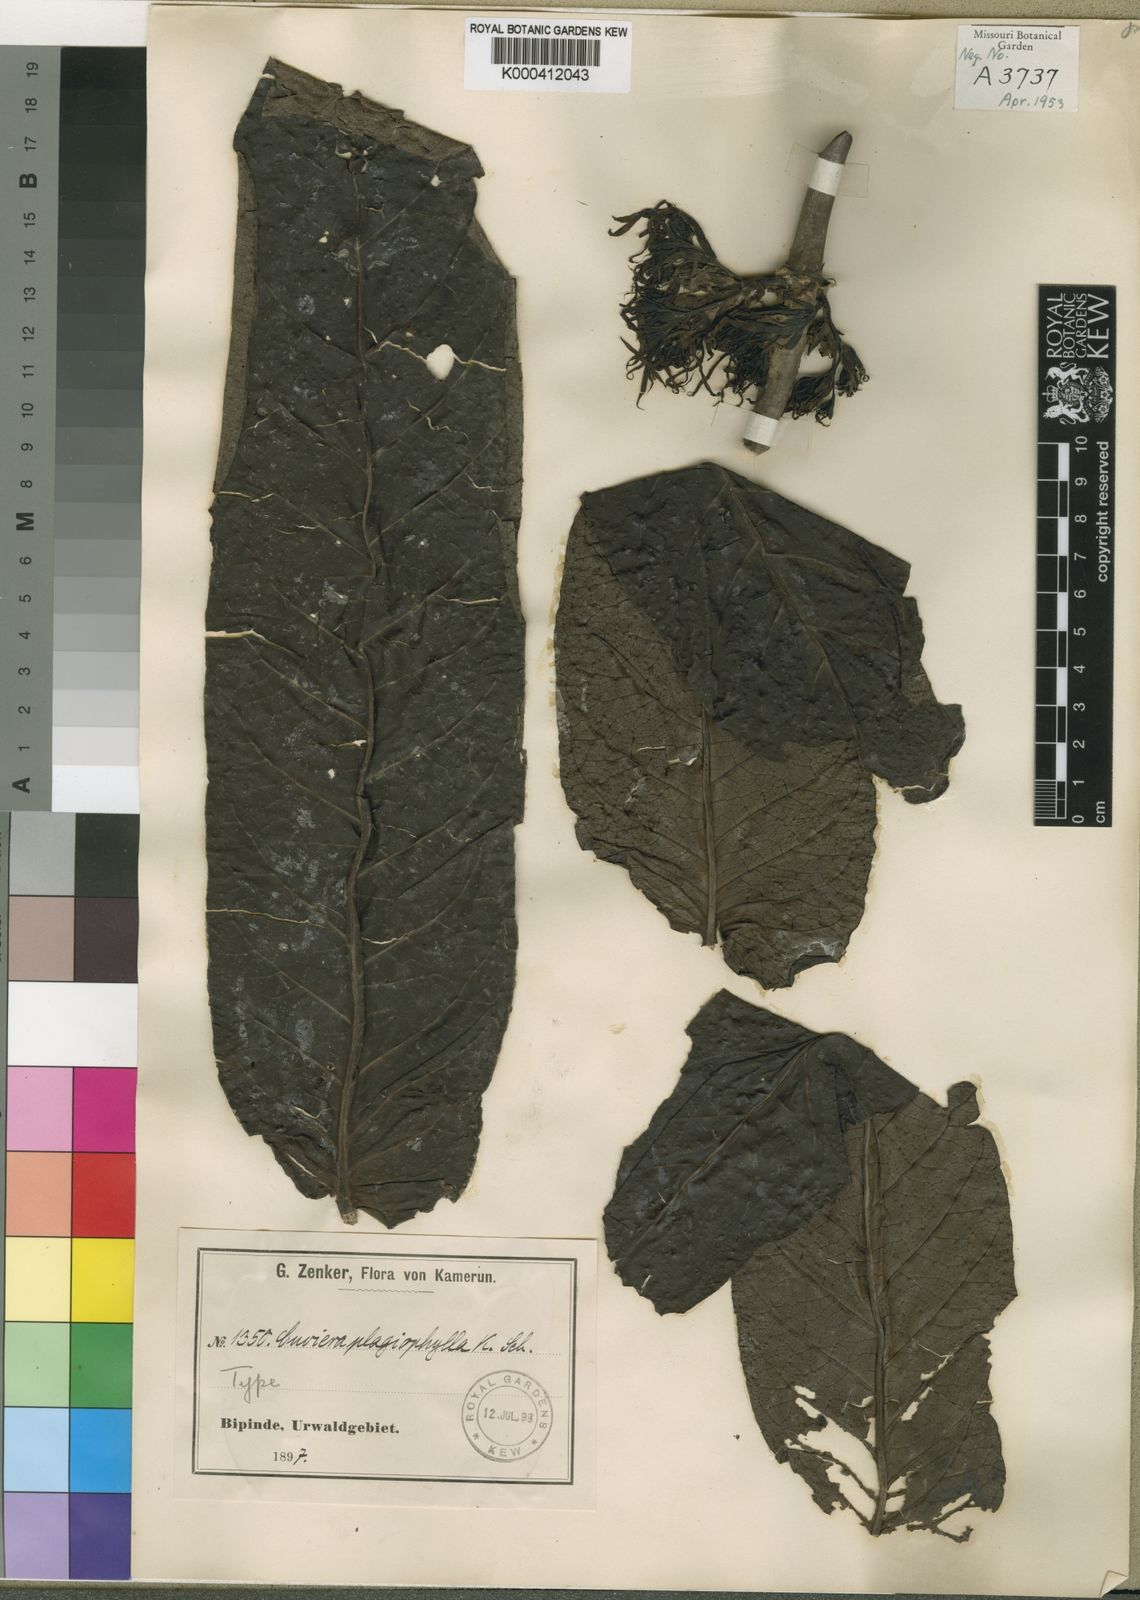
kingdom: Plantae
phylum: Tracheophyta
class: Magnoliopsida
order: Gentianales
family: Rubiaceae
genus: Cuviera
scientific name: Cuviera subuliflora
